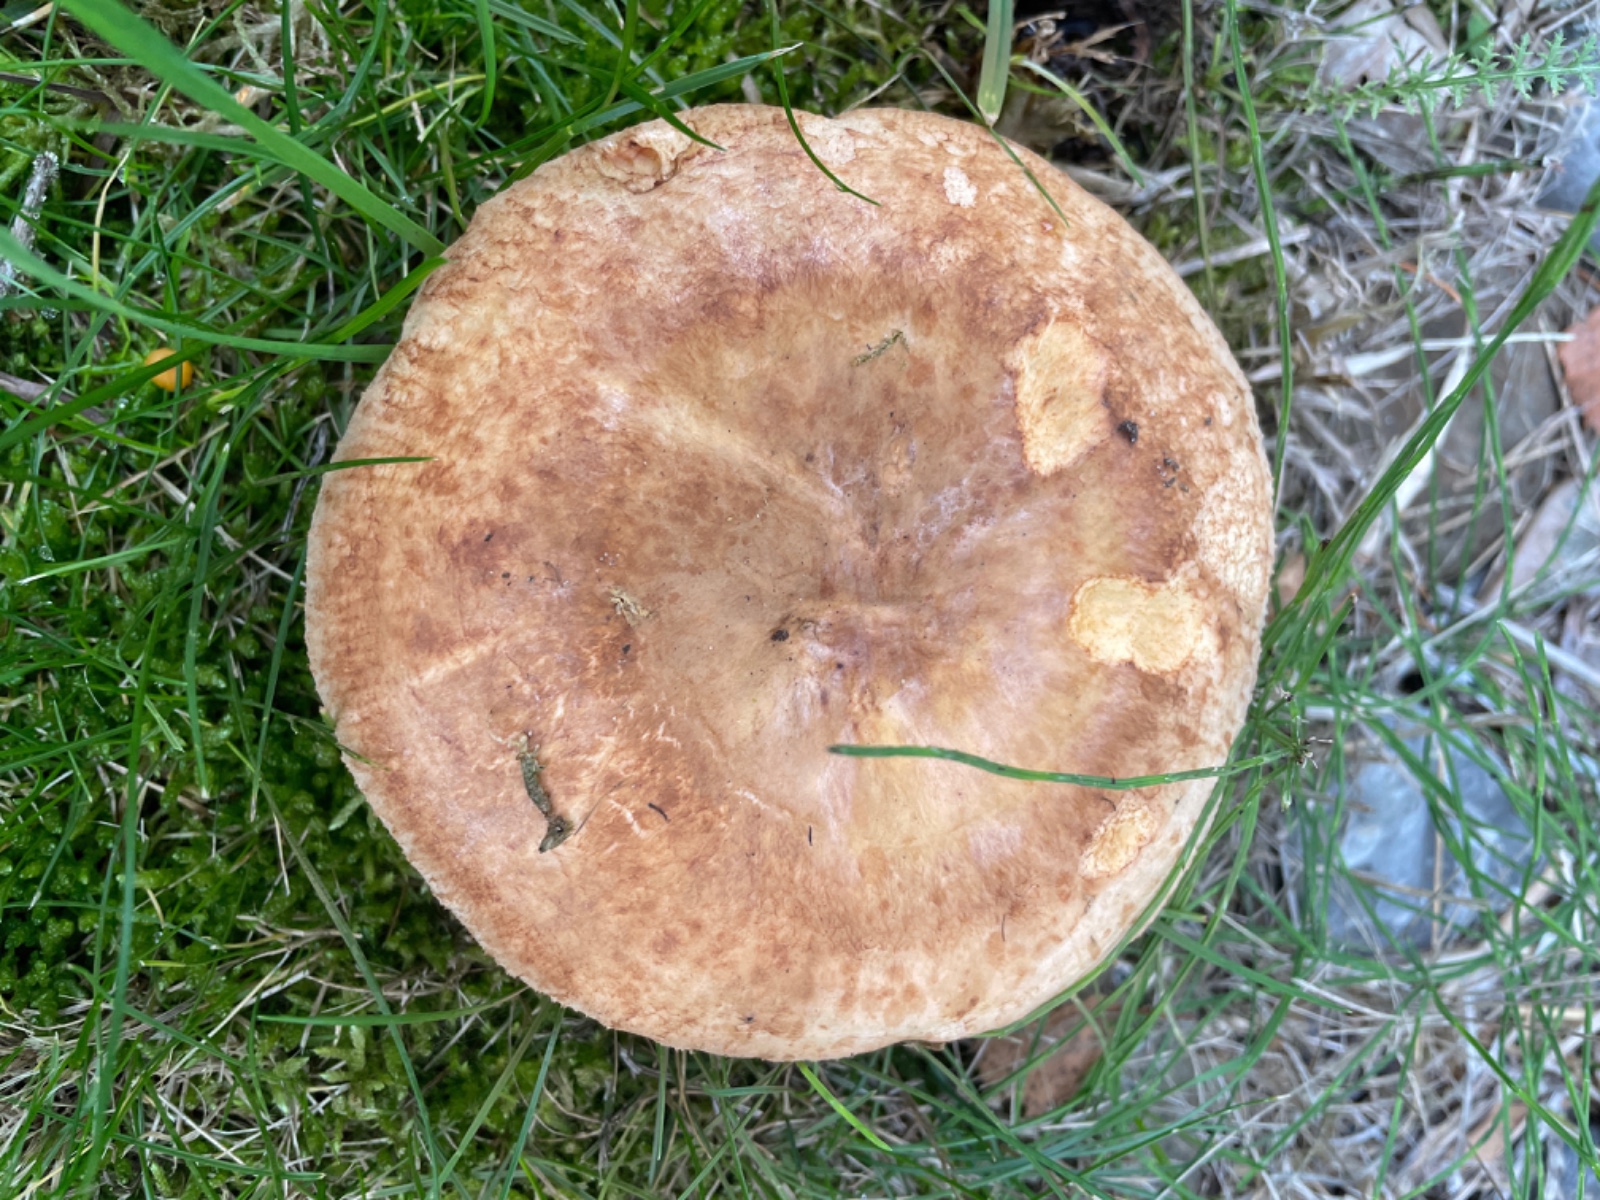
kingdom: Fungi
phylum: Basidiomycota
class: Agaricomycetes
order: Boletales
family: Paxillaceae
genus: Paxillus
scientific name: Paxillus
